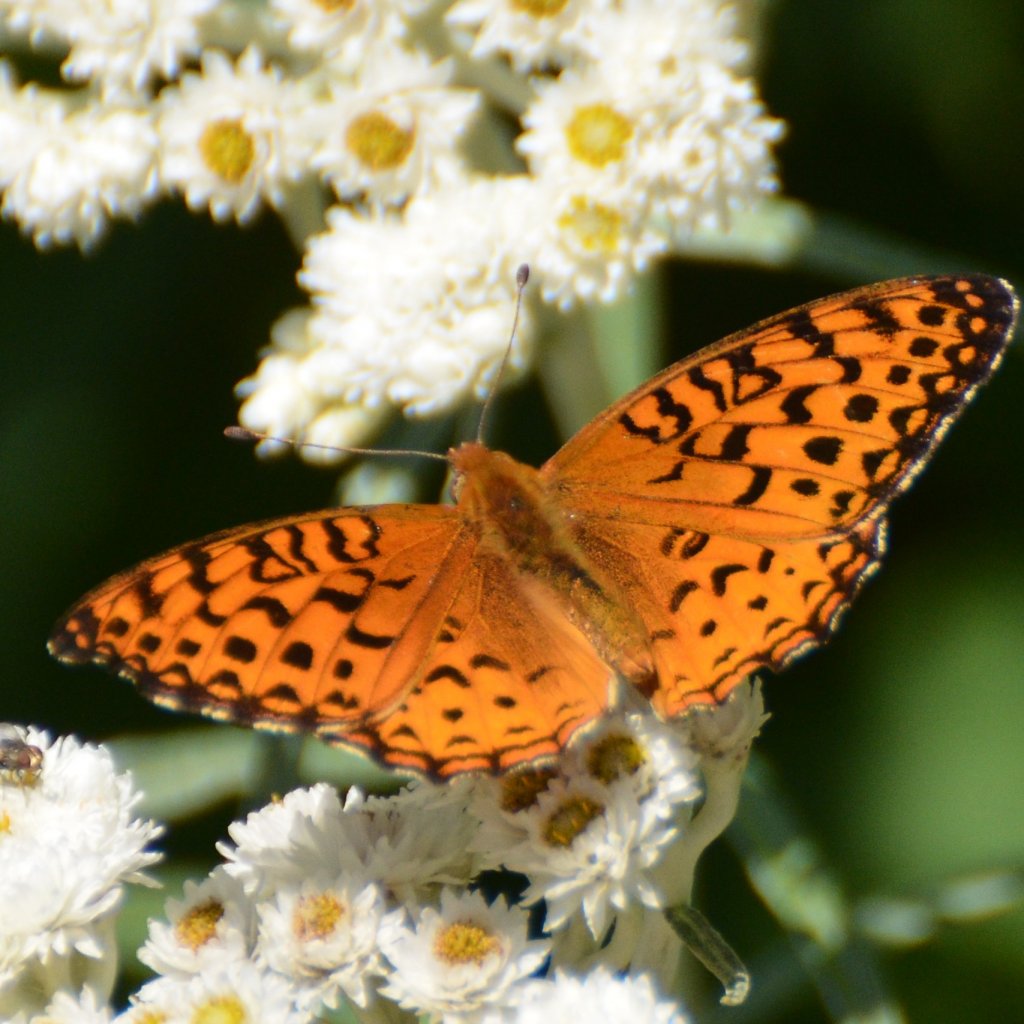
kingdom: Animalia
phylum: Arthropoda
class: Insecta
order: Lepidoptera
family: Nymphalidae
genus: Speyeria
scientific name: Speyeria aphrodite
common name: Aphrodite Fritillary
